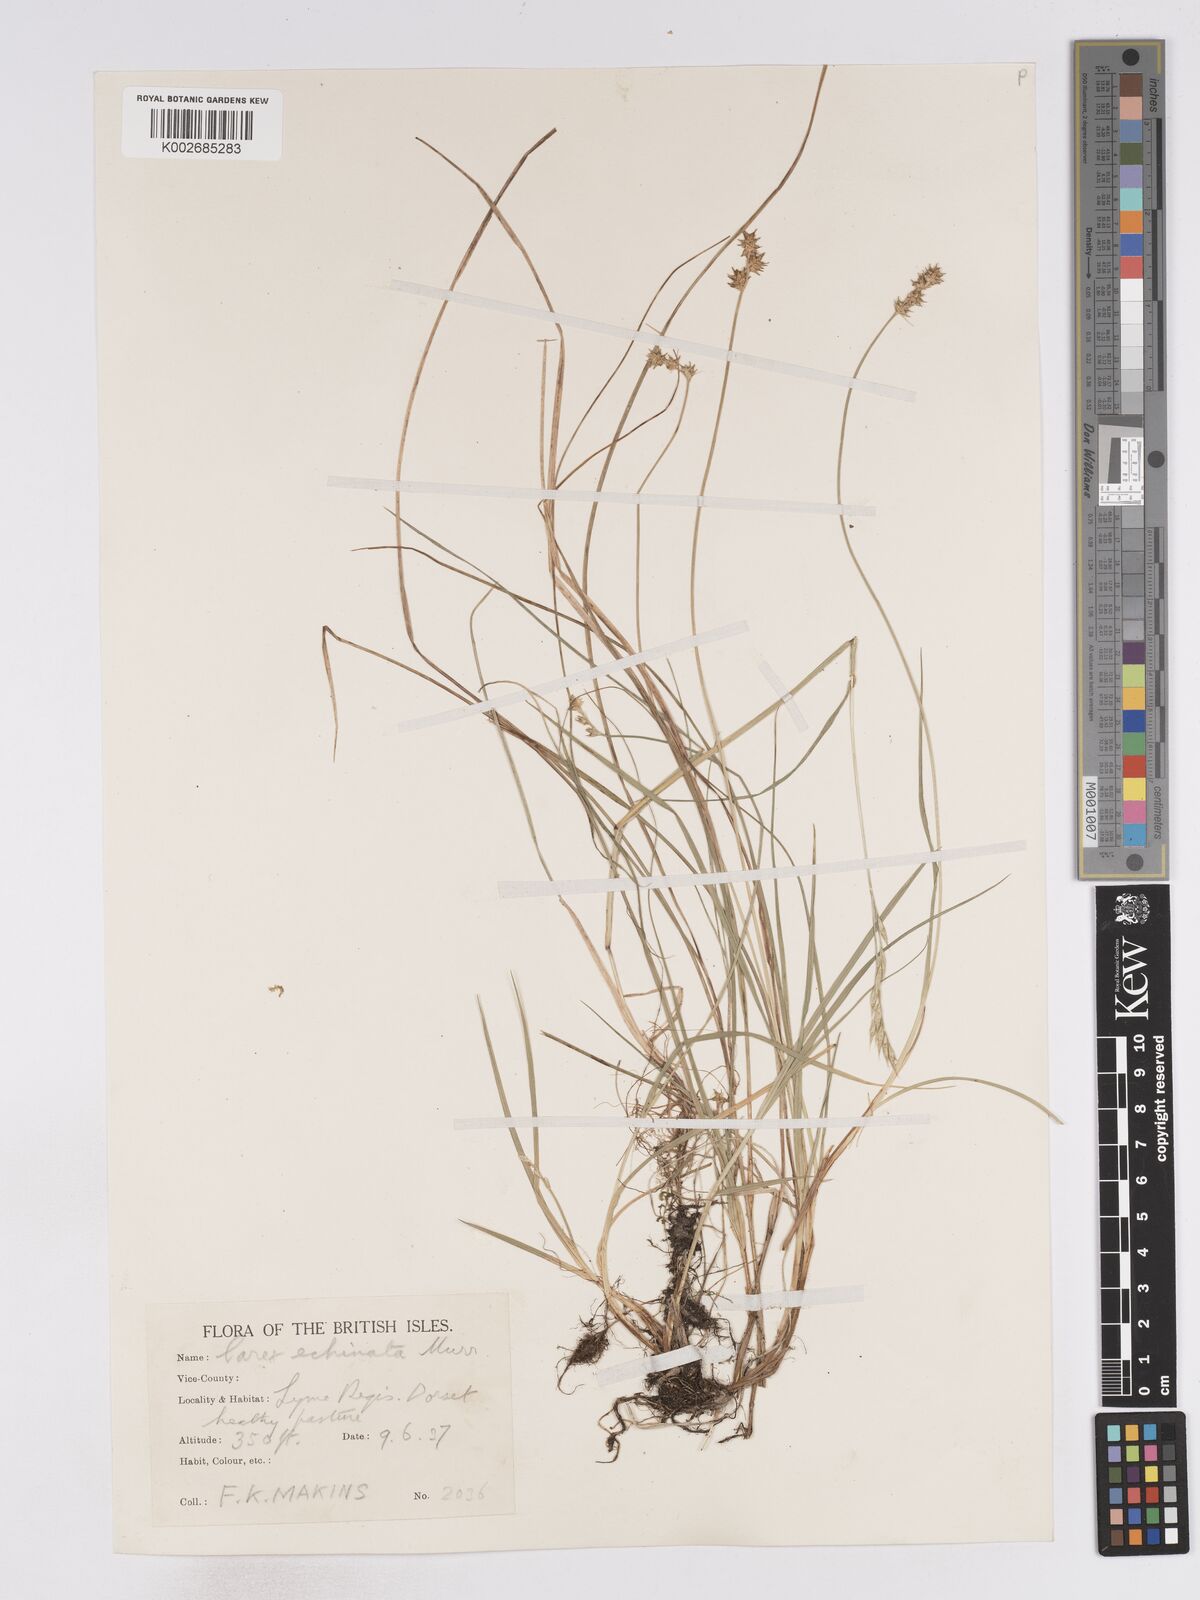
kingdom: Plantae
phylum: Tracheophyta
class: Liliopsida
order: Poales
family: Cyperaceae
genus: Carex
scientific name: Carex echinata
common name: Star sedge
